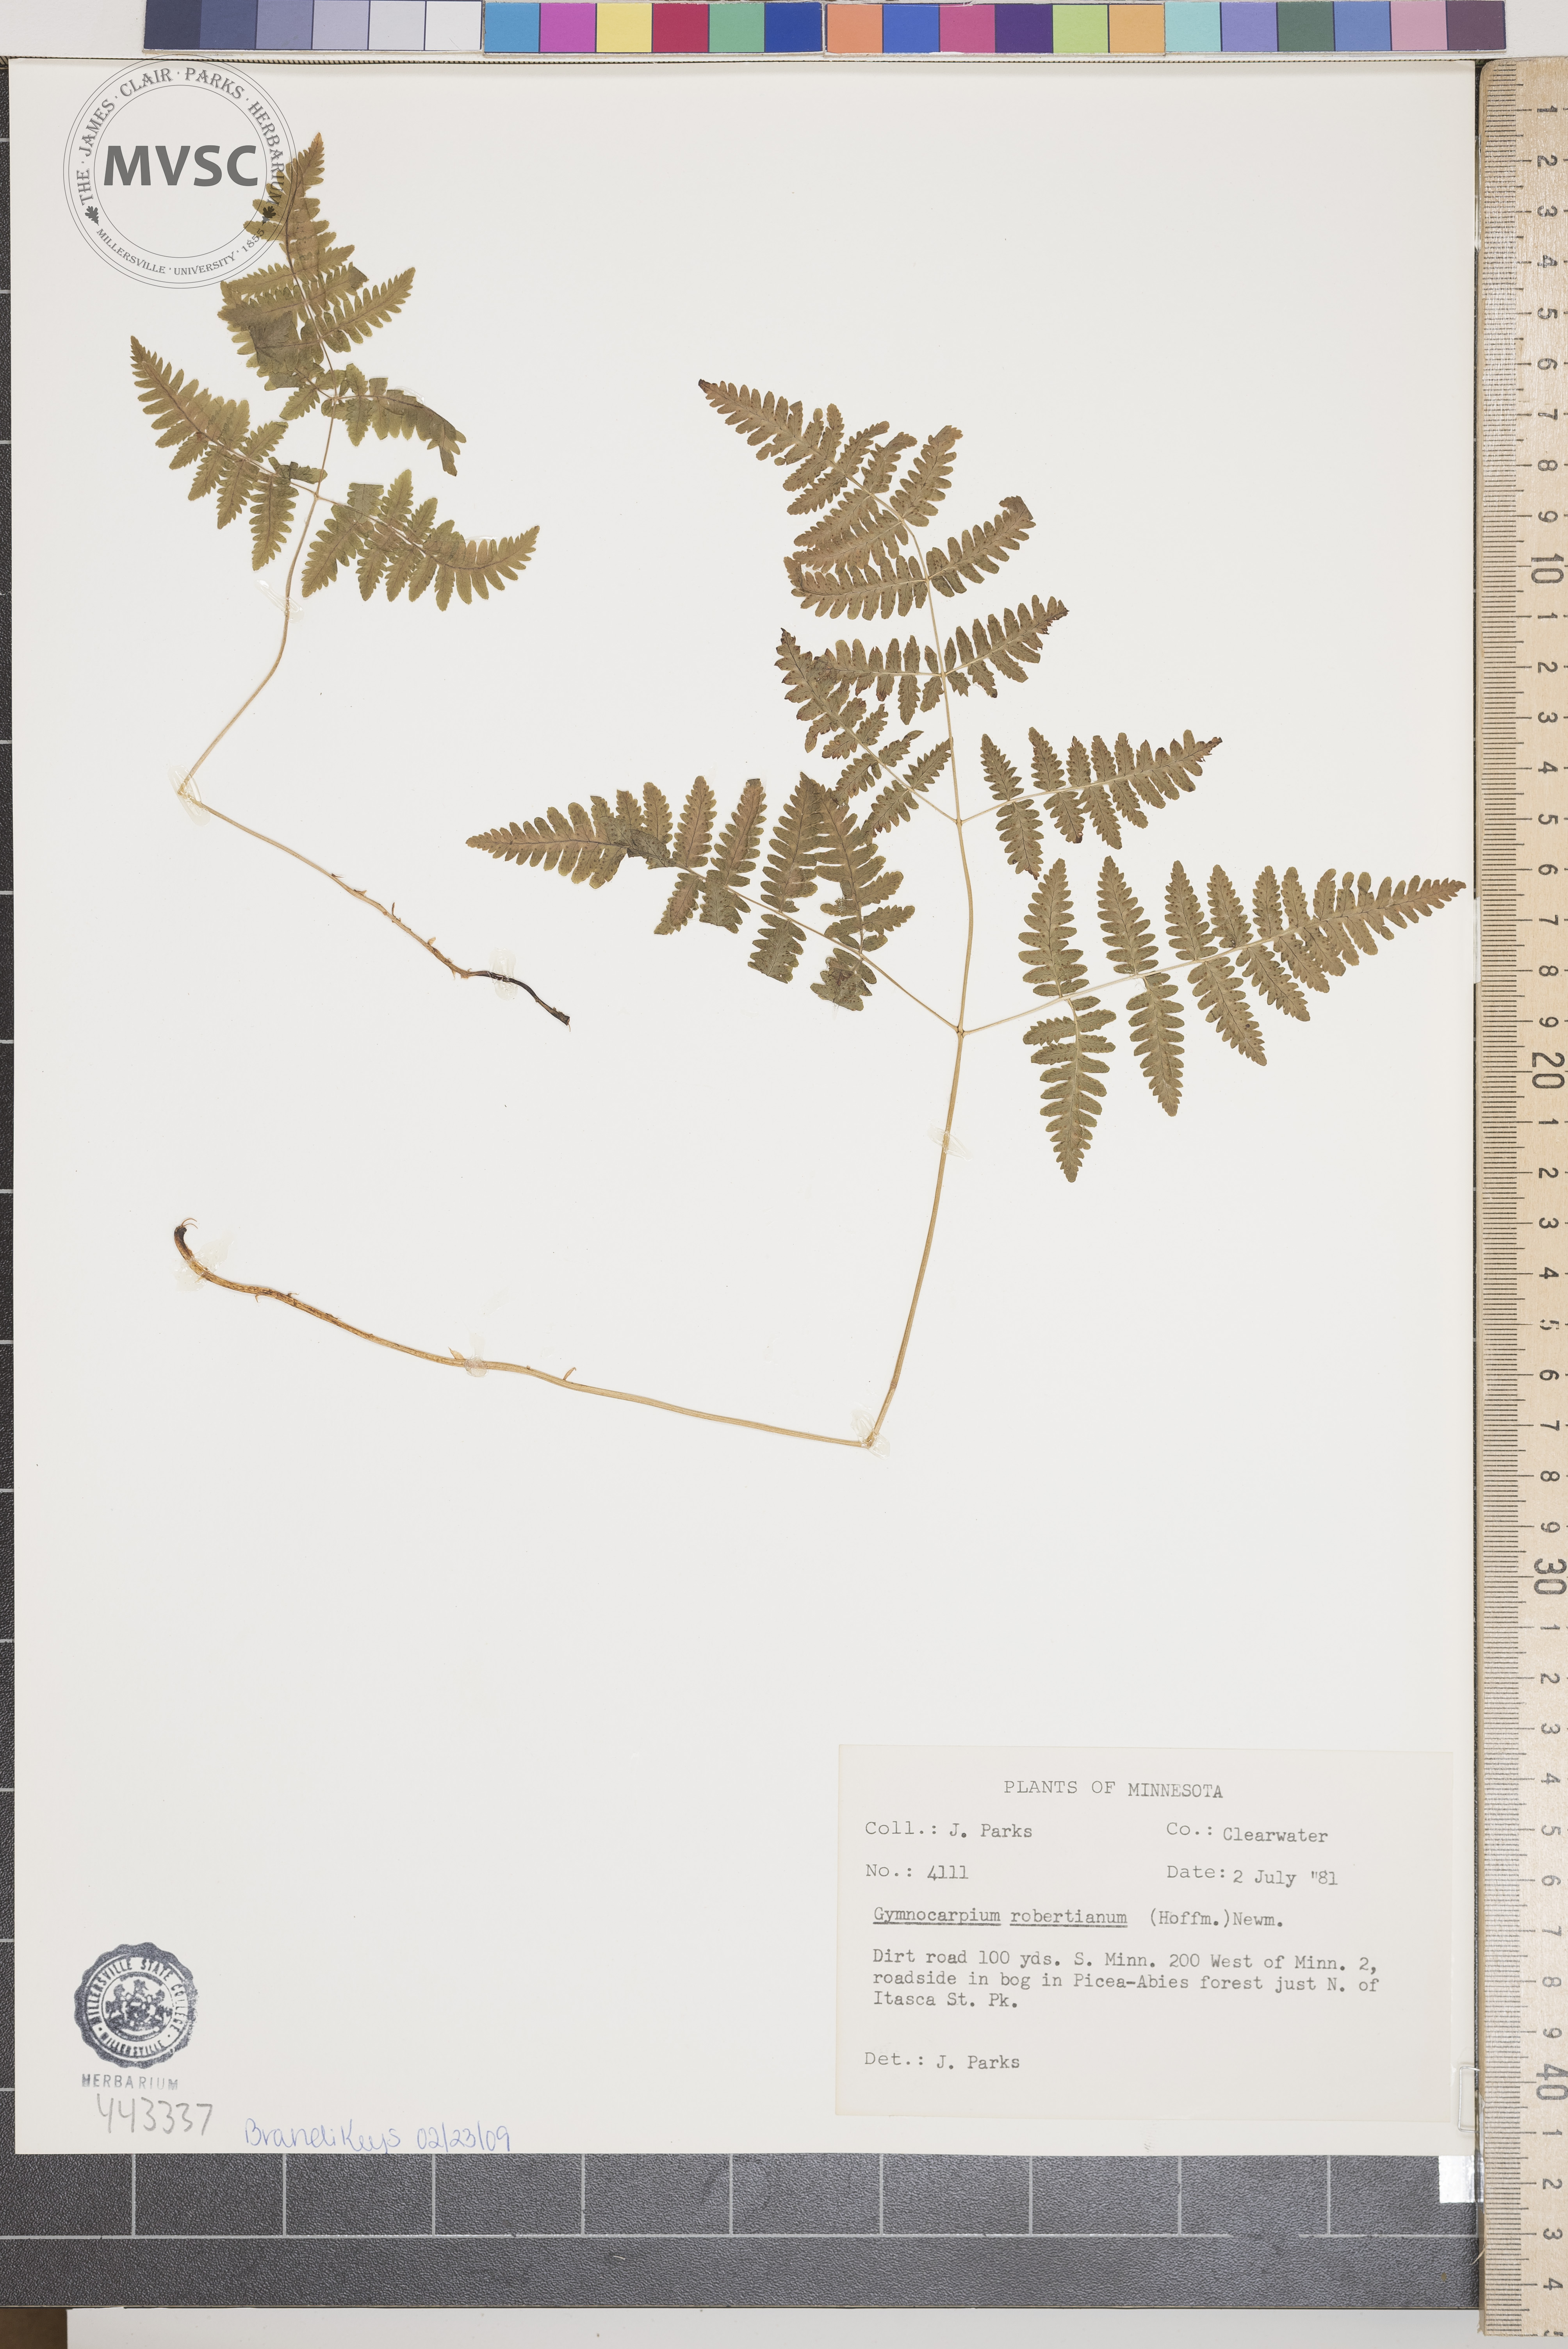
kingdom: Plantae
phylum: Tracheophyta
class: Polypodiopsida
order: Polypodiales
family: Cystopteridaceae
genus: Gymnocarpium
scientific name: Gymnocarpium robertianum
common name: Limestone fern
